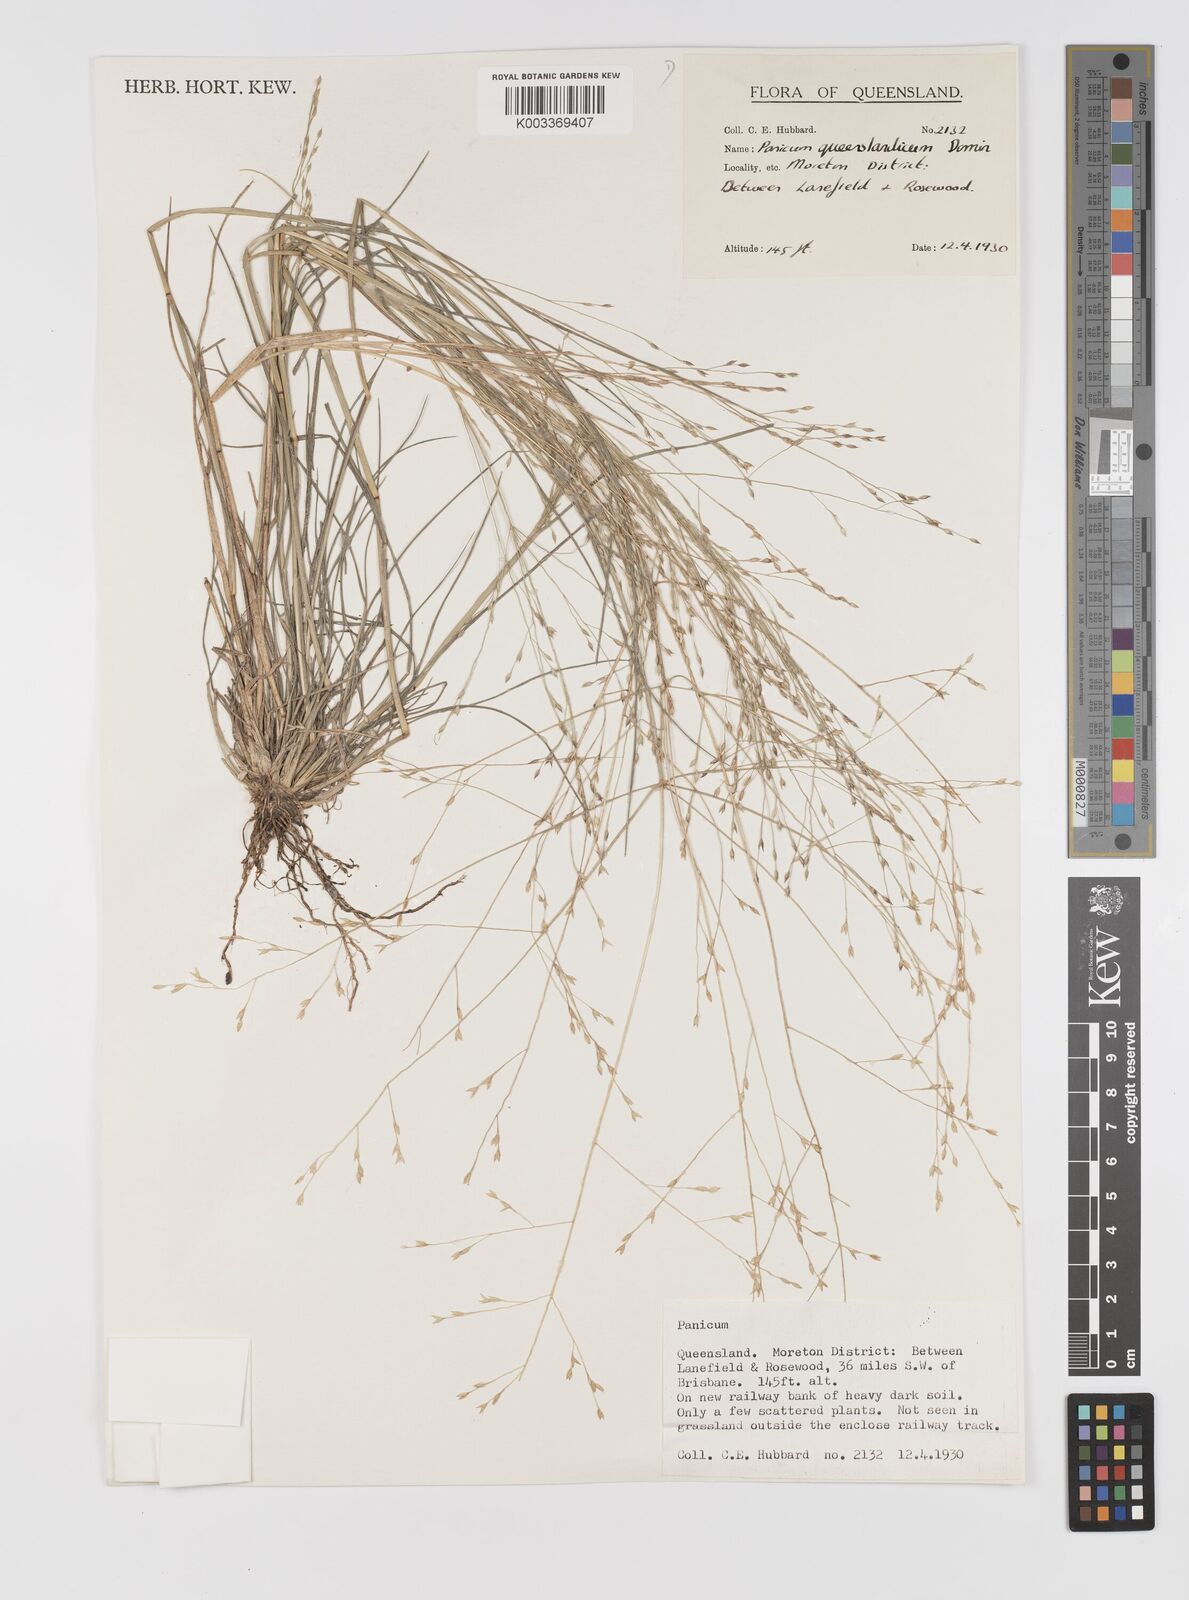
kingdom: Plantae
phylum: Tracheophyta
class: Liliopsida
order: Poales
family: Poaceae
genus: Panicum
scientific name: Panicum queenslandicum
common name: Yabila grass
